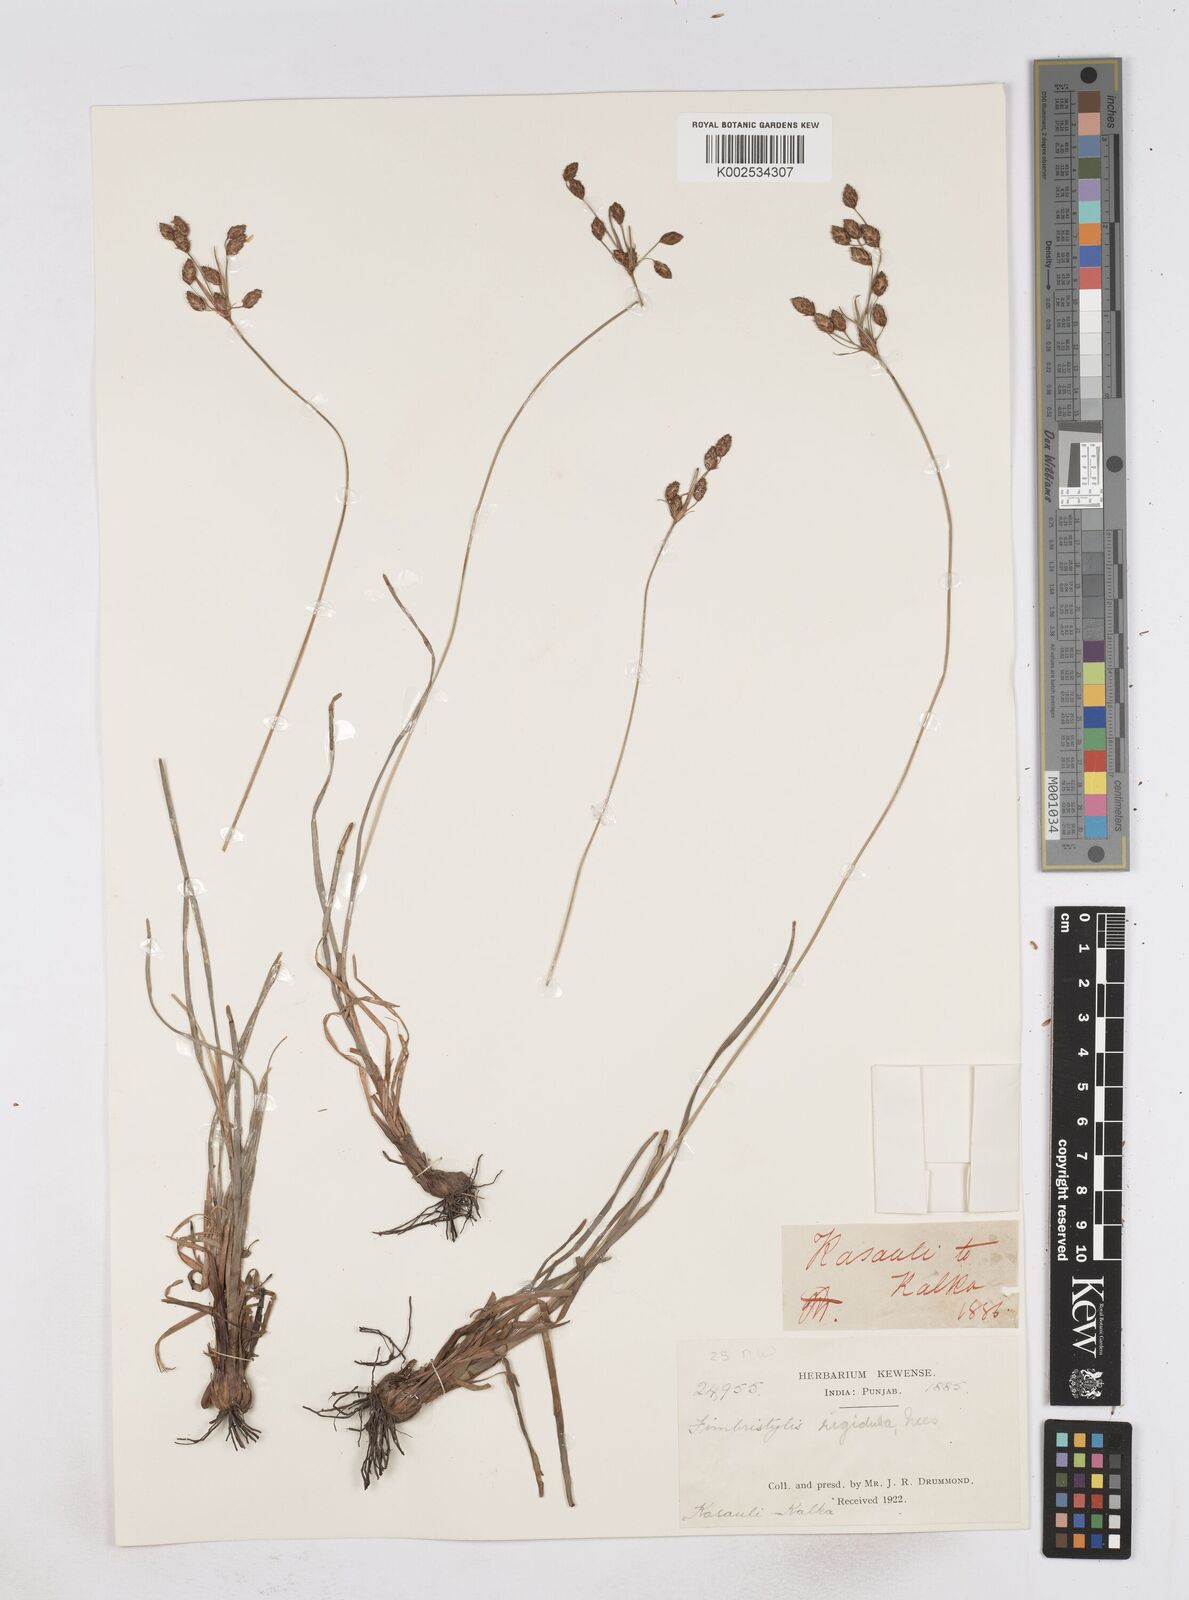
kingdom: Plantae
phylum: Tracheophyta
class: Liliopsida
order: Poales
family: Cyperaceae
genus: Fimbristylis
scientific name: Fimbristylis rigidula
